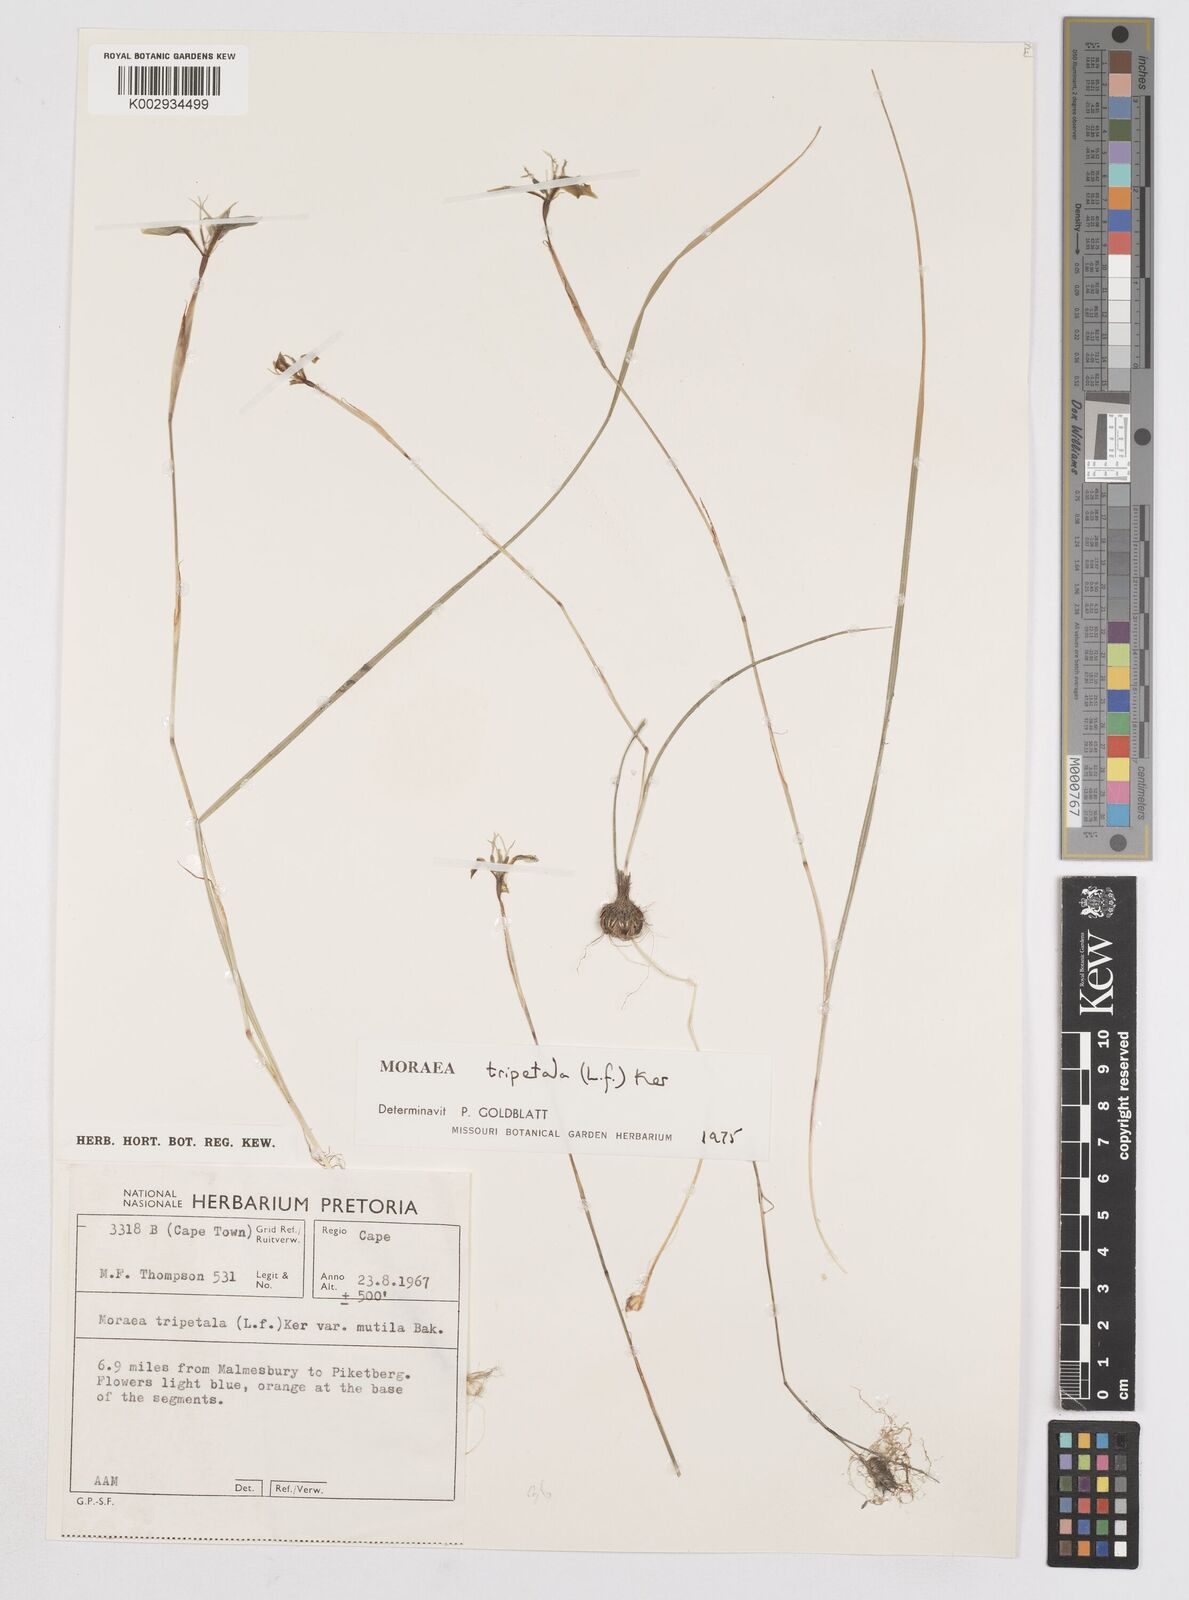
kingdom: Plantae
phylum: Tracheophyta
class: Liliopsida
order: Asparagales
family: Iridaceae
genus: Moraea
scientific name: Moraea tripetala
